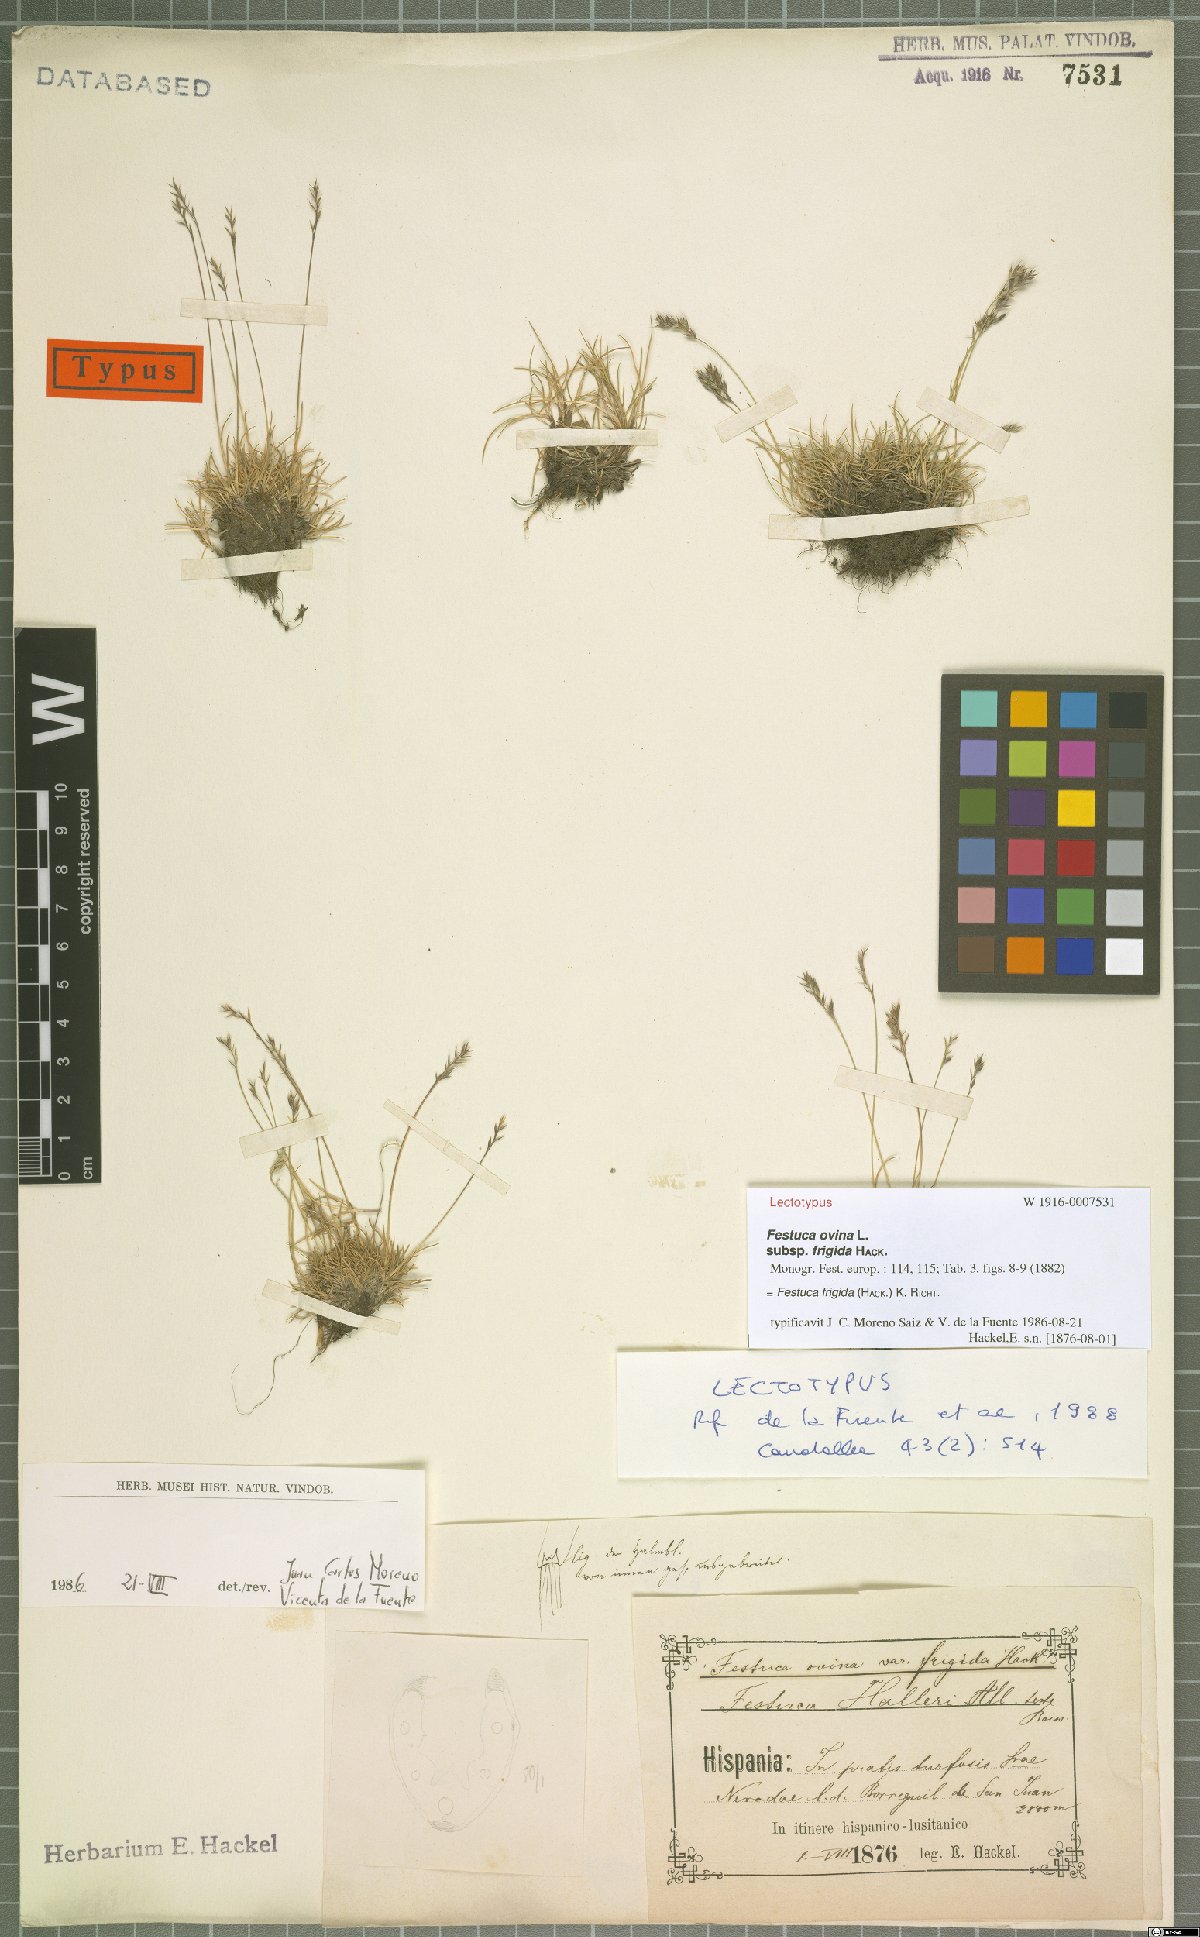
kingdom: Plantae
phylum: Tracheophyta
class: Liliopsida
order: Poales
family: Poaceae
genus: Festuca
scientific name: Festuca frigida
